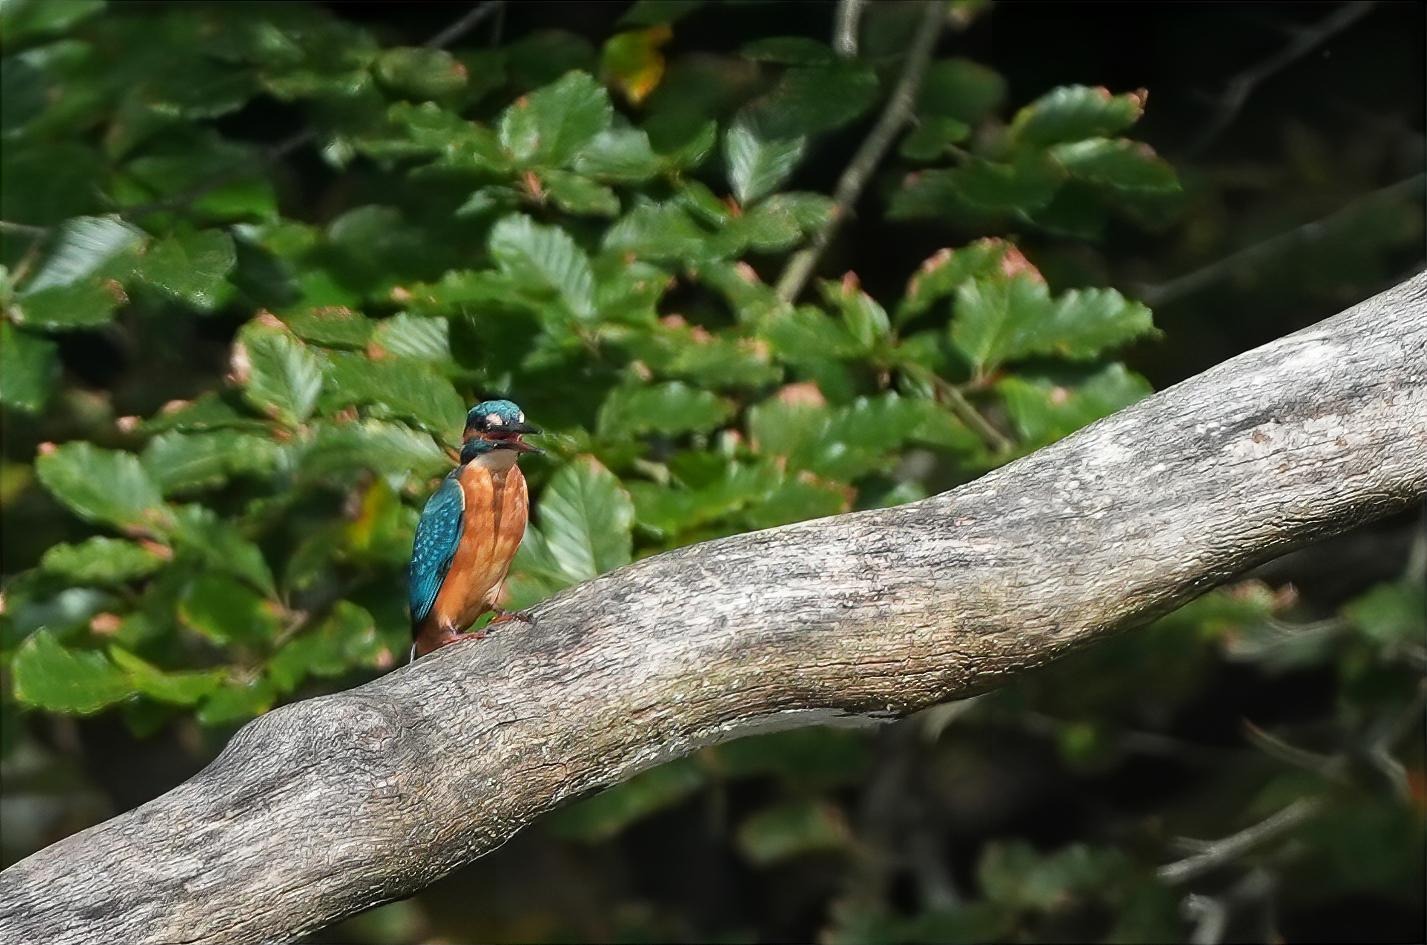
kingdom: Animalia
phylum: Chordata
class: Aves
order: Coraciiformes
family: Alcedinidae
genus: Alcedo
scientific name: Alcedo atthis
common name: Isfugl
